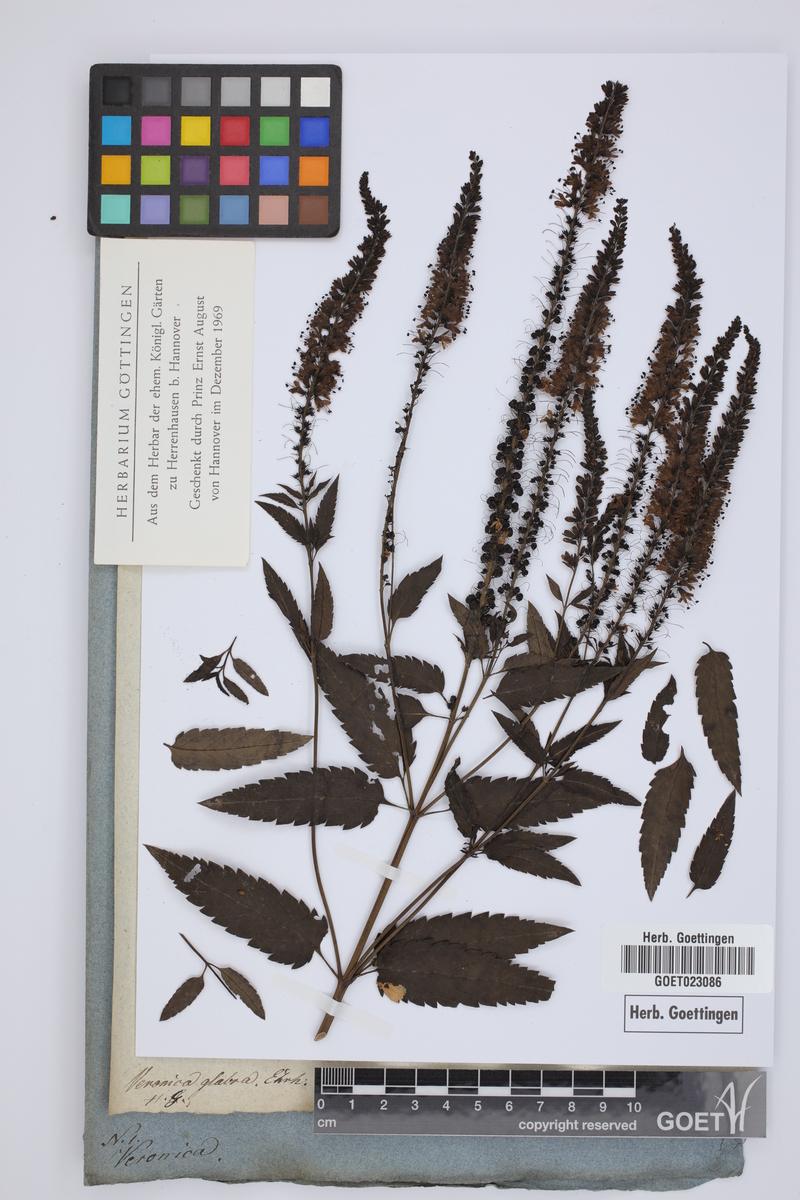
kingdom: Plantae
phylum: Tracheophyta
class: Magnoliopsida
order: Lamiales
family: Plantaginaceae
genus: Veronica
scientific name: Veronica maritima
